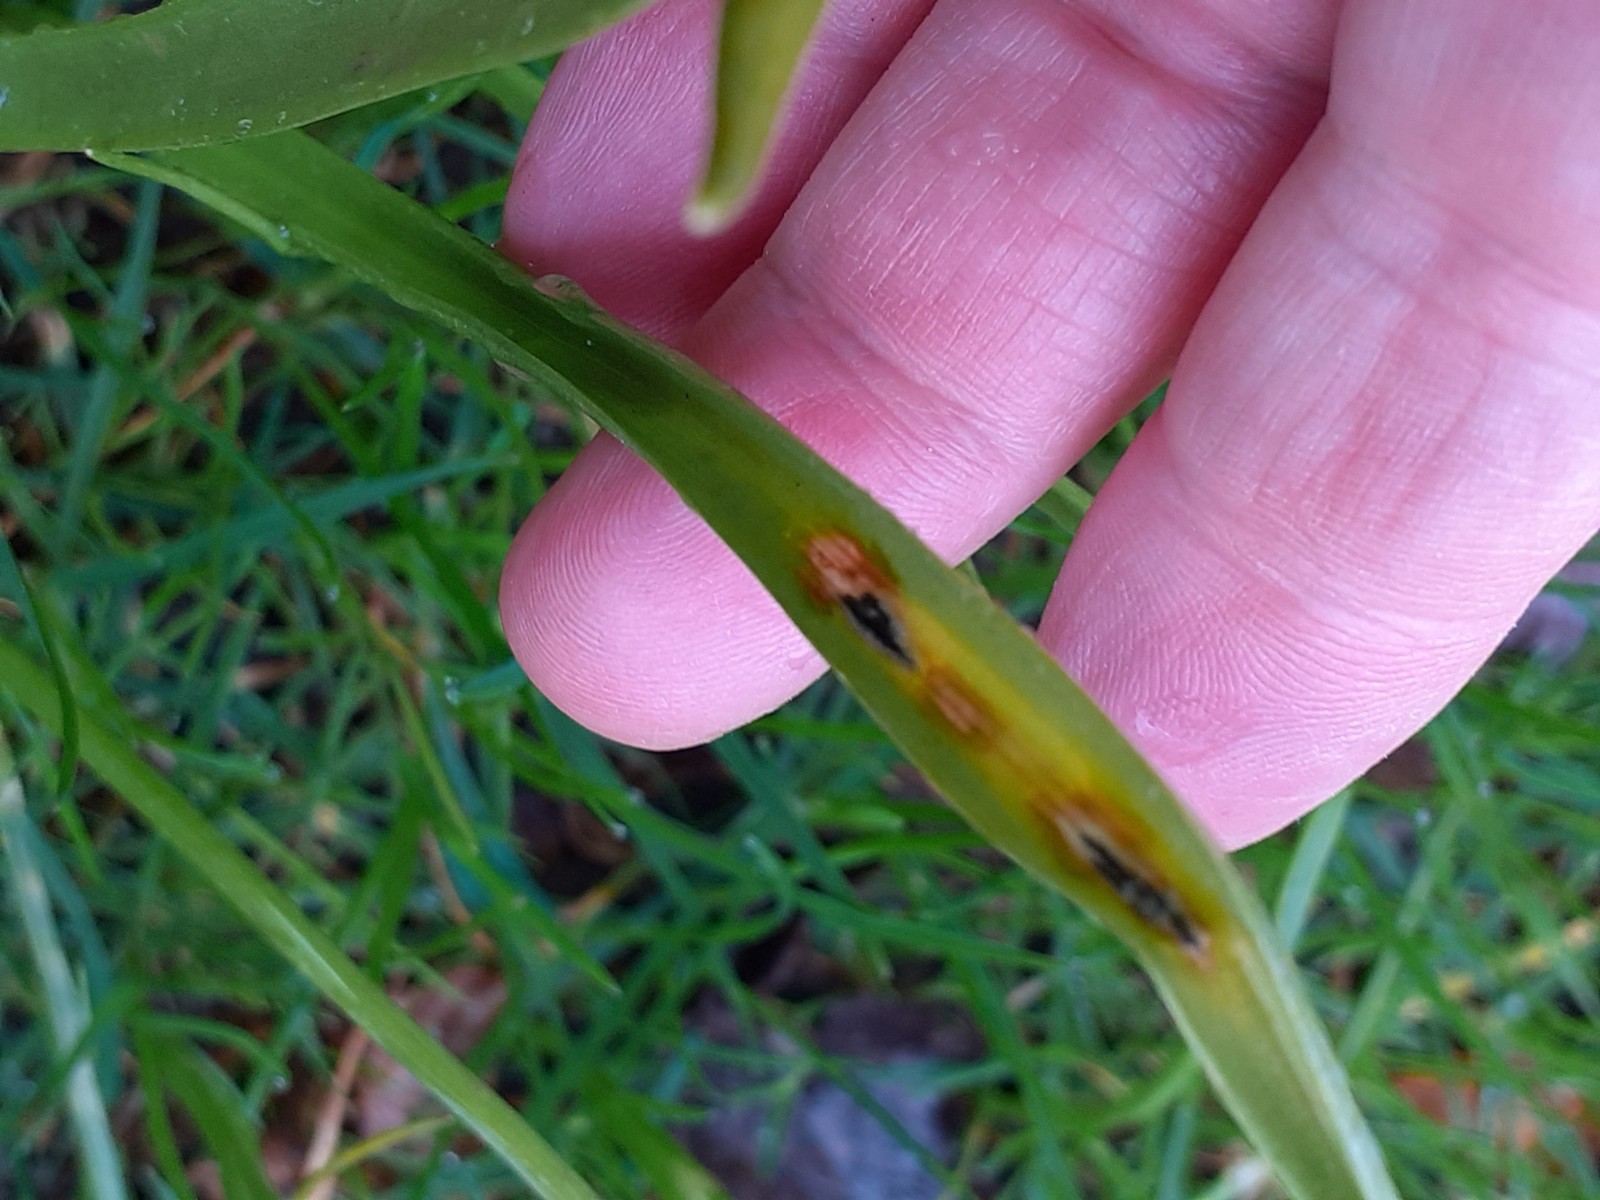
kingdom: Fungi
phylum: Basidiomycota
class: Ustilaginomycetes
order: Urocystidales
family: Urocystidaceae
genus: Vankya
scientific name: Vankya ornithogali
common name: Yellow star-of-bethlehem smut
